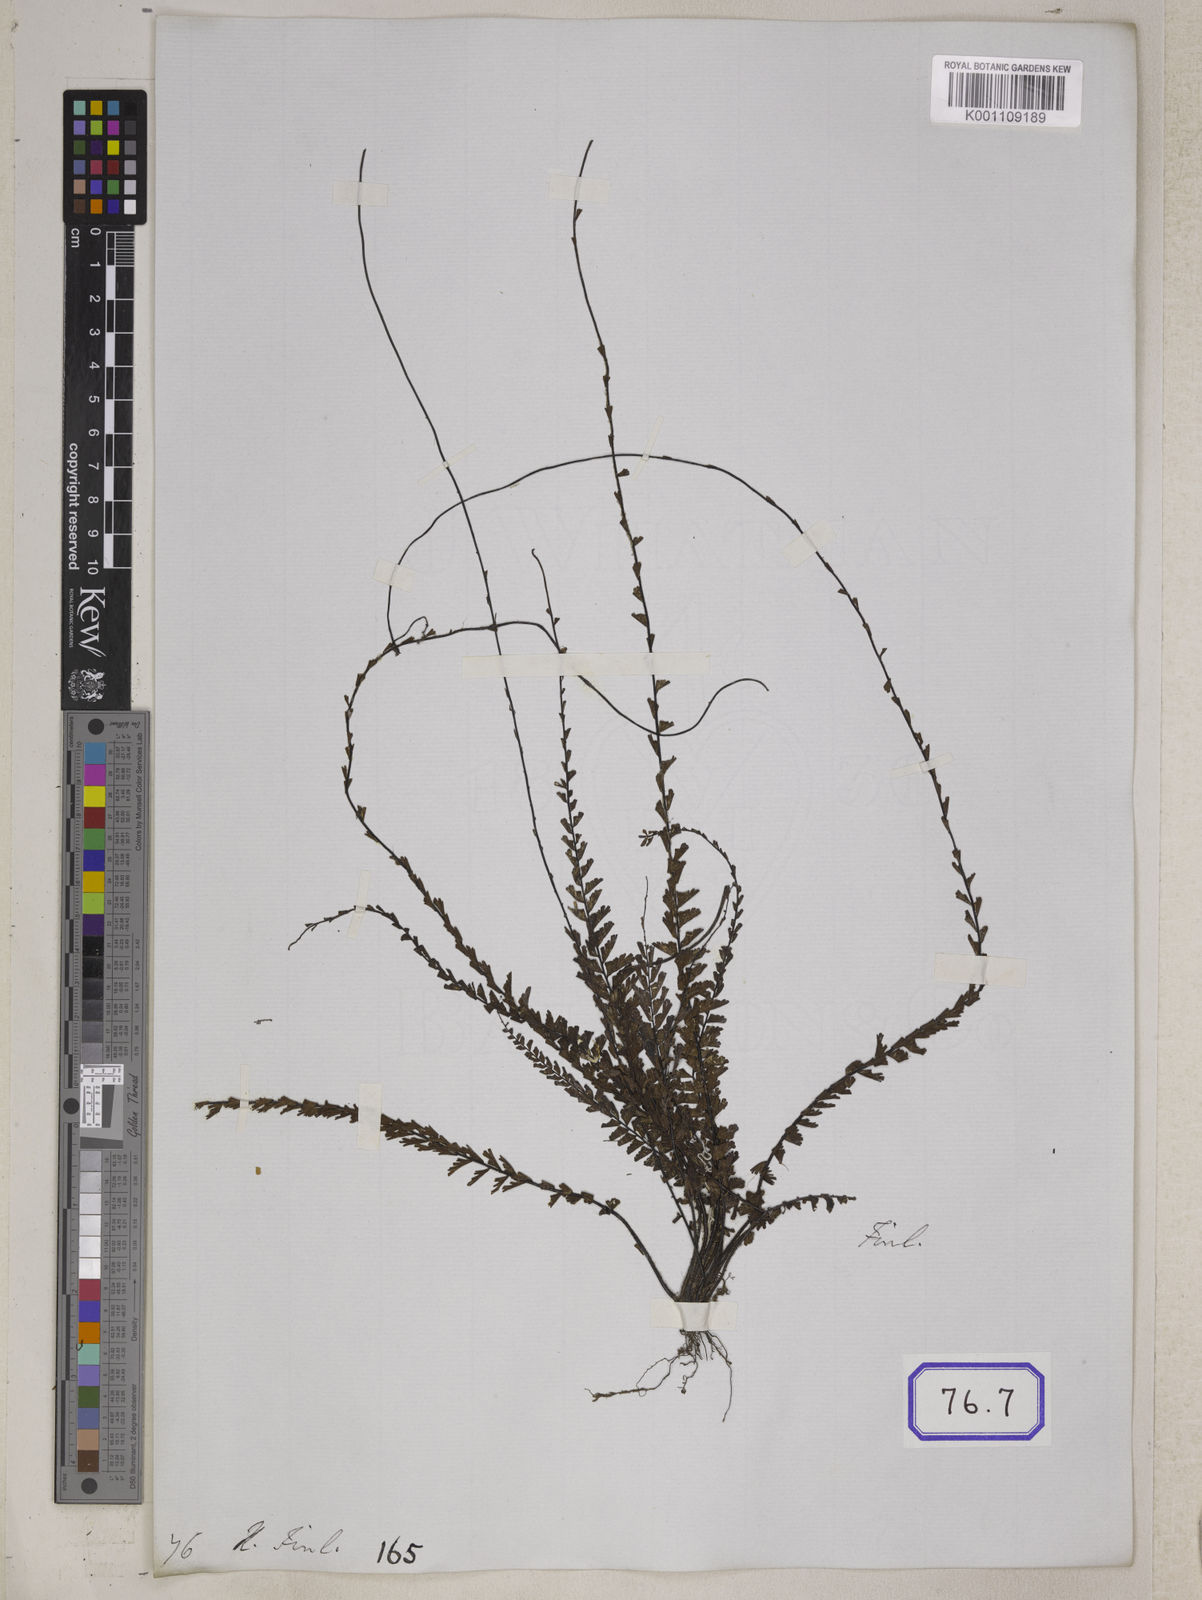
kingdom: Plantae
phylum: Tracheophyta
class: Polypodiopsida
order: Polypodiales
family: Pteridaceae
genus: Adiantum
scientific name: Adiantum caudatum
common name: Tailed maidenhair
